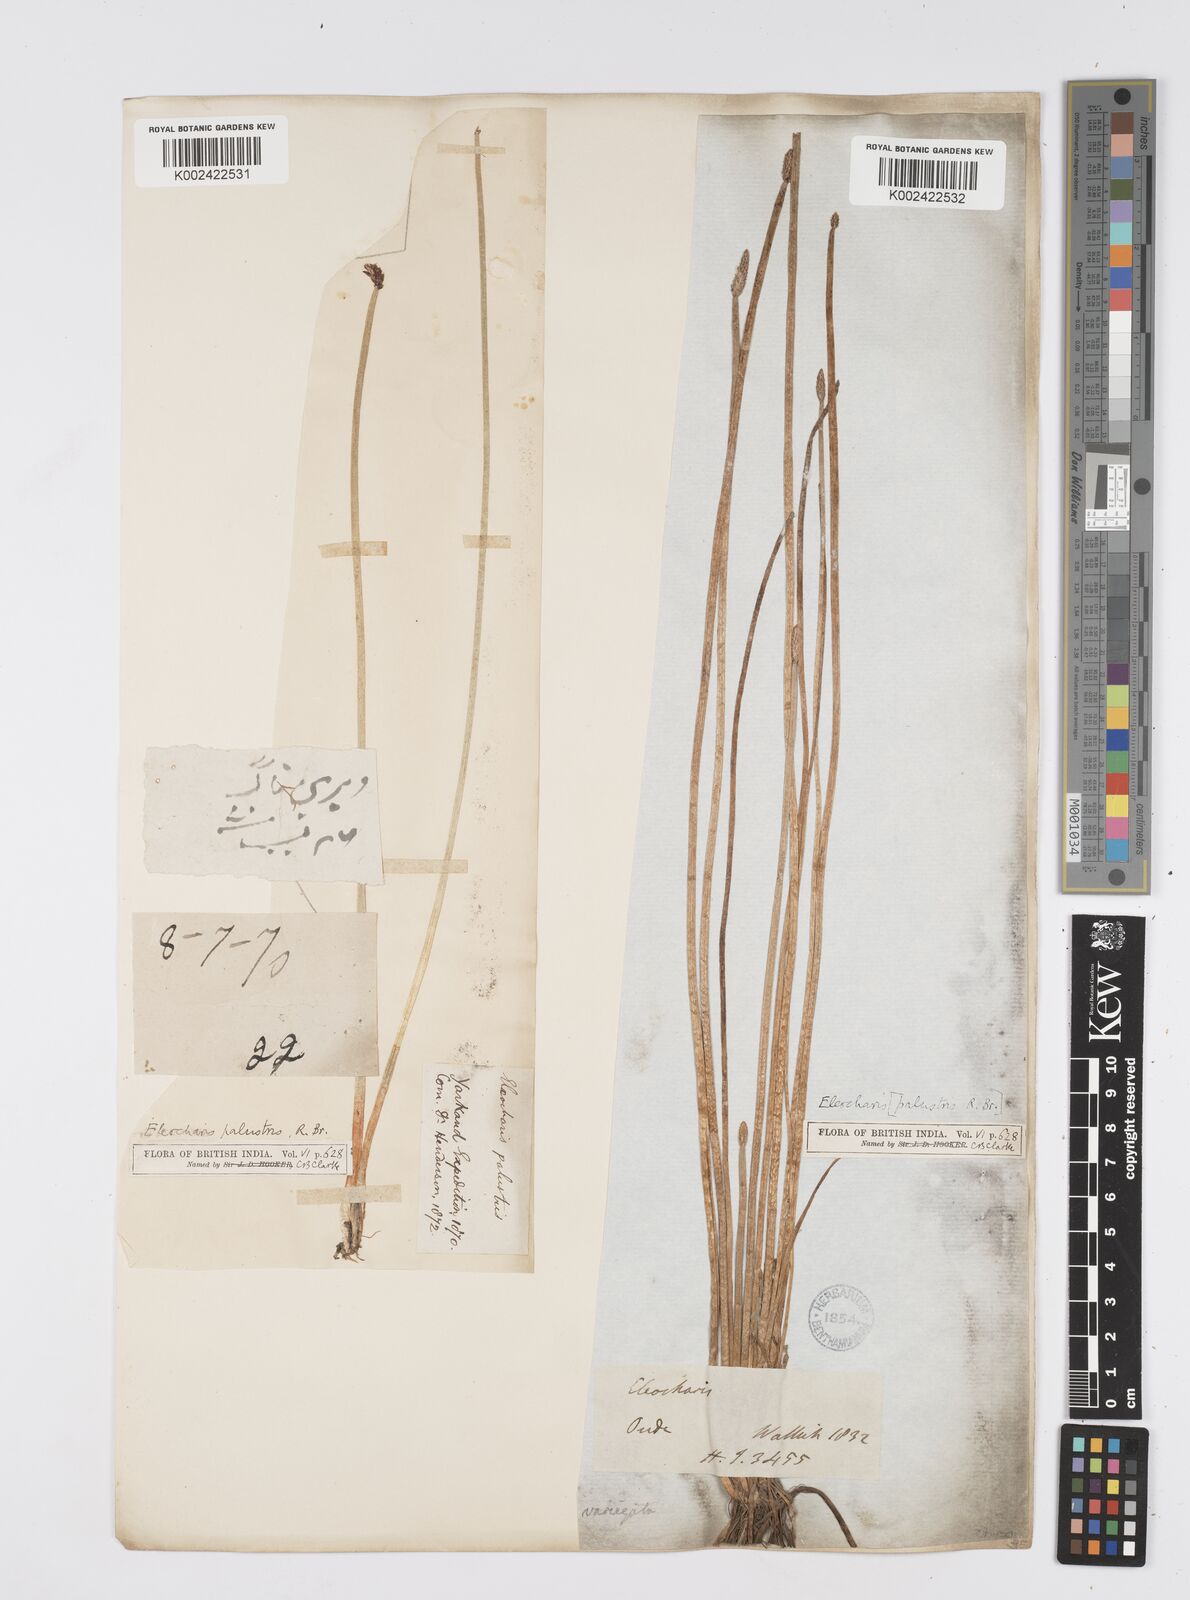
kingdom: Plantae
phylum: Tracheophyta
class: Liliopsida
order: Poales
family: Cyperaceae
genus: Eleocharis
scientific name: Eleocharis palustris
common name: Common spike-rush
